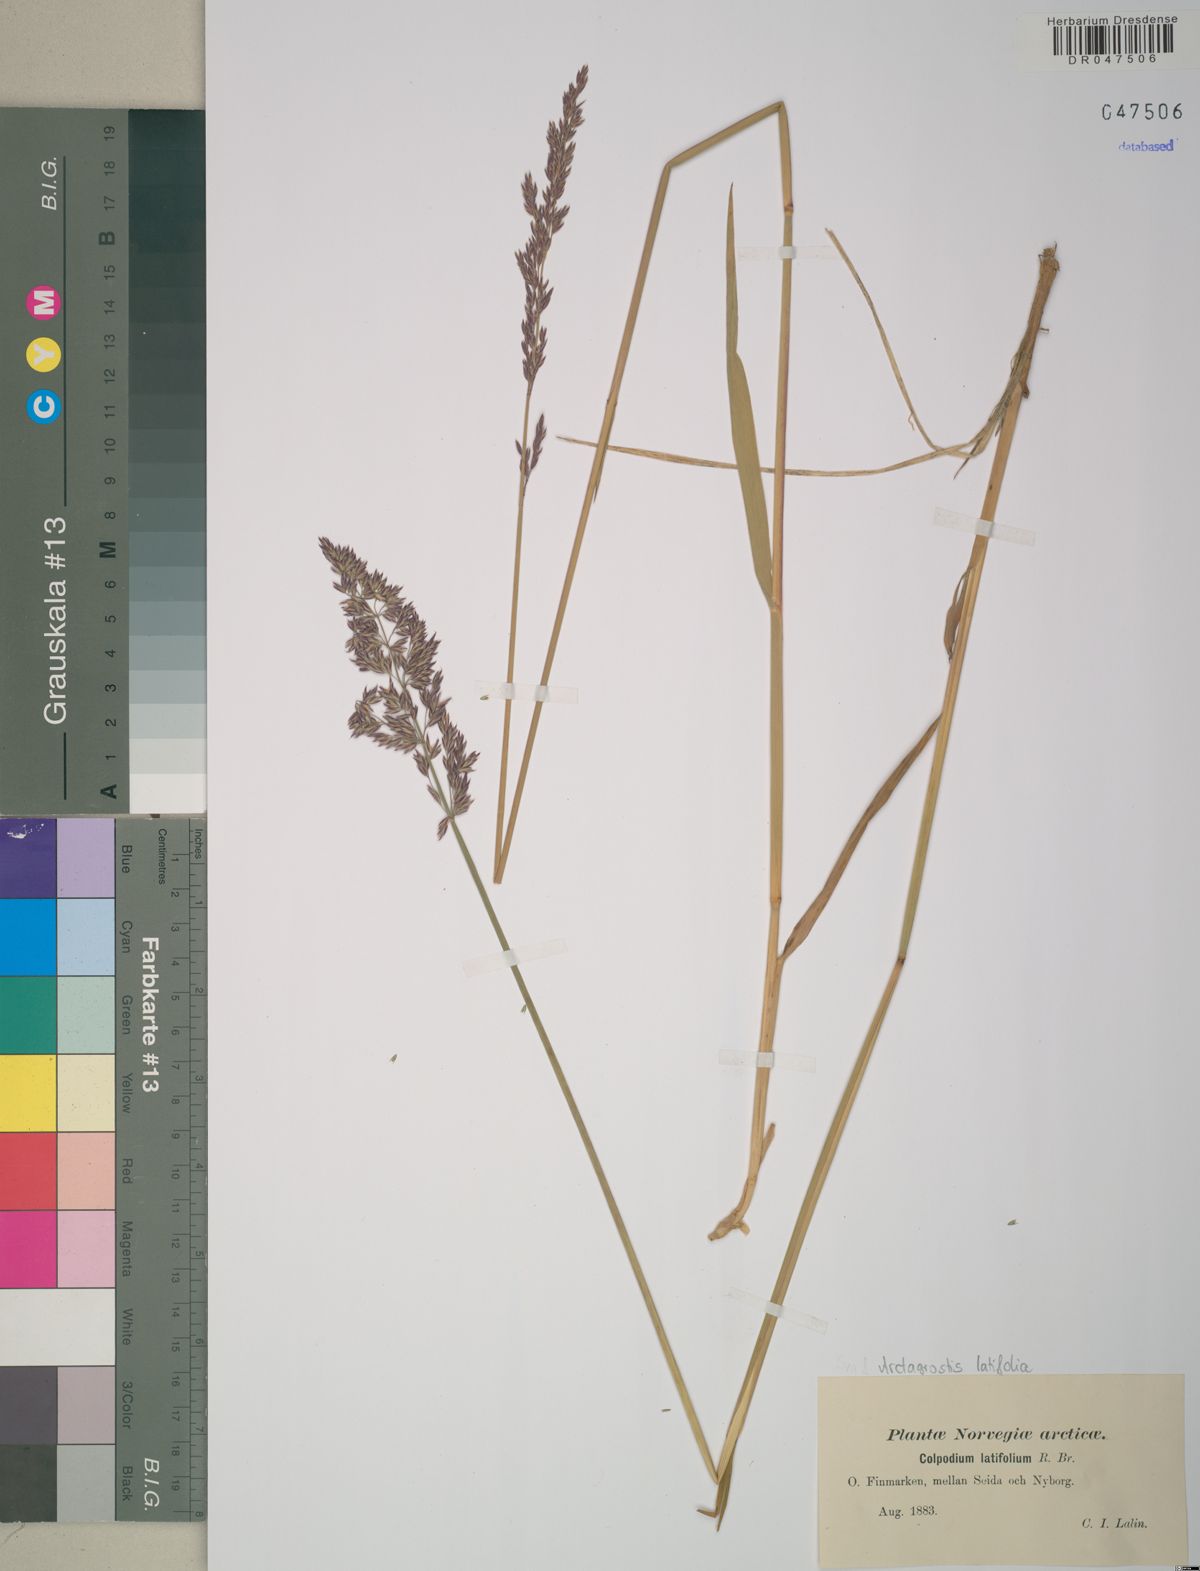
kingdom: Plantae
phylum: Tracheophyta
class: Liliopsida
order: Poales
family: Poaceae
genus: Arctagrostis
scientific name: Arctagrostis latifolia
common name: Arctic grass
